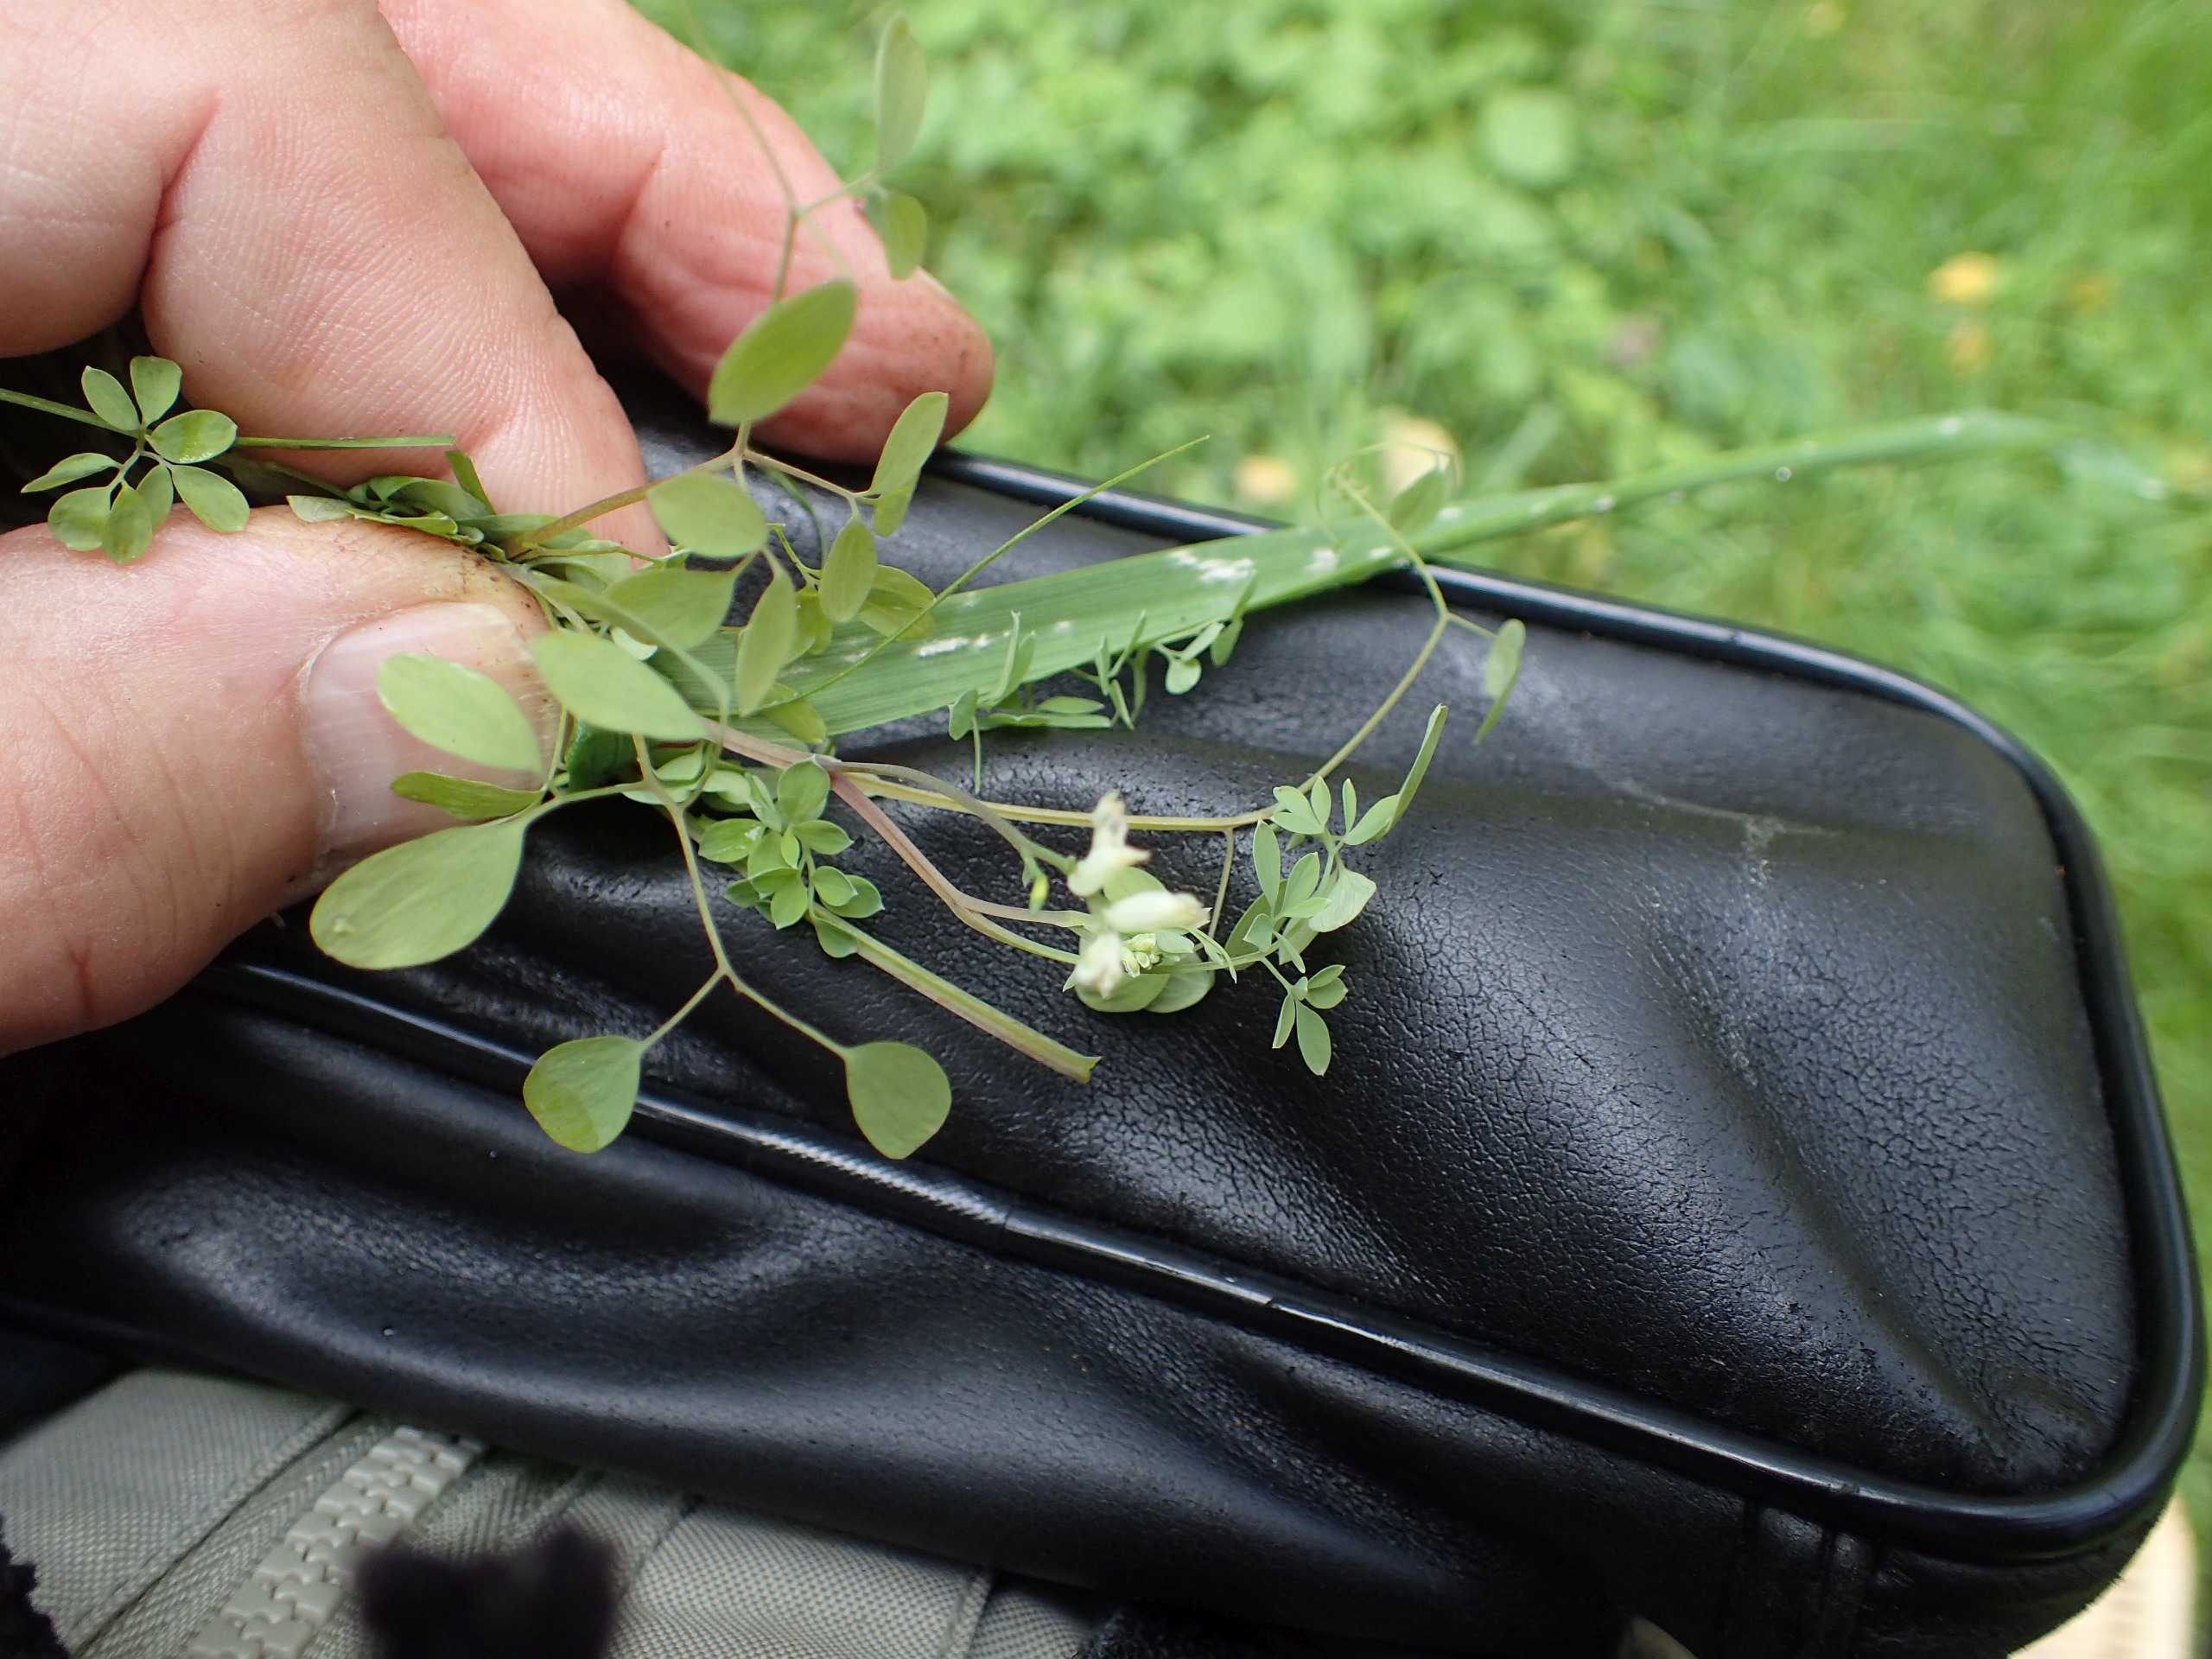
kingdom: Plantae
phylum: Tracheophyta
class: Magnoliopsida
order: Ranunculales
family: Papaveraceae
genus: Ceratocapnos
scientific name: Ceratocapnos claviculata
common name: Klatrende lærkespore
